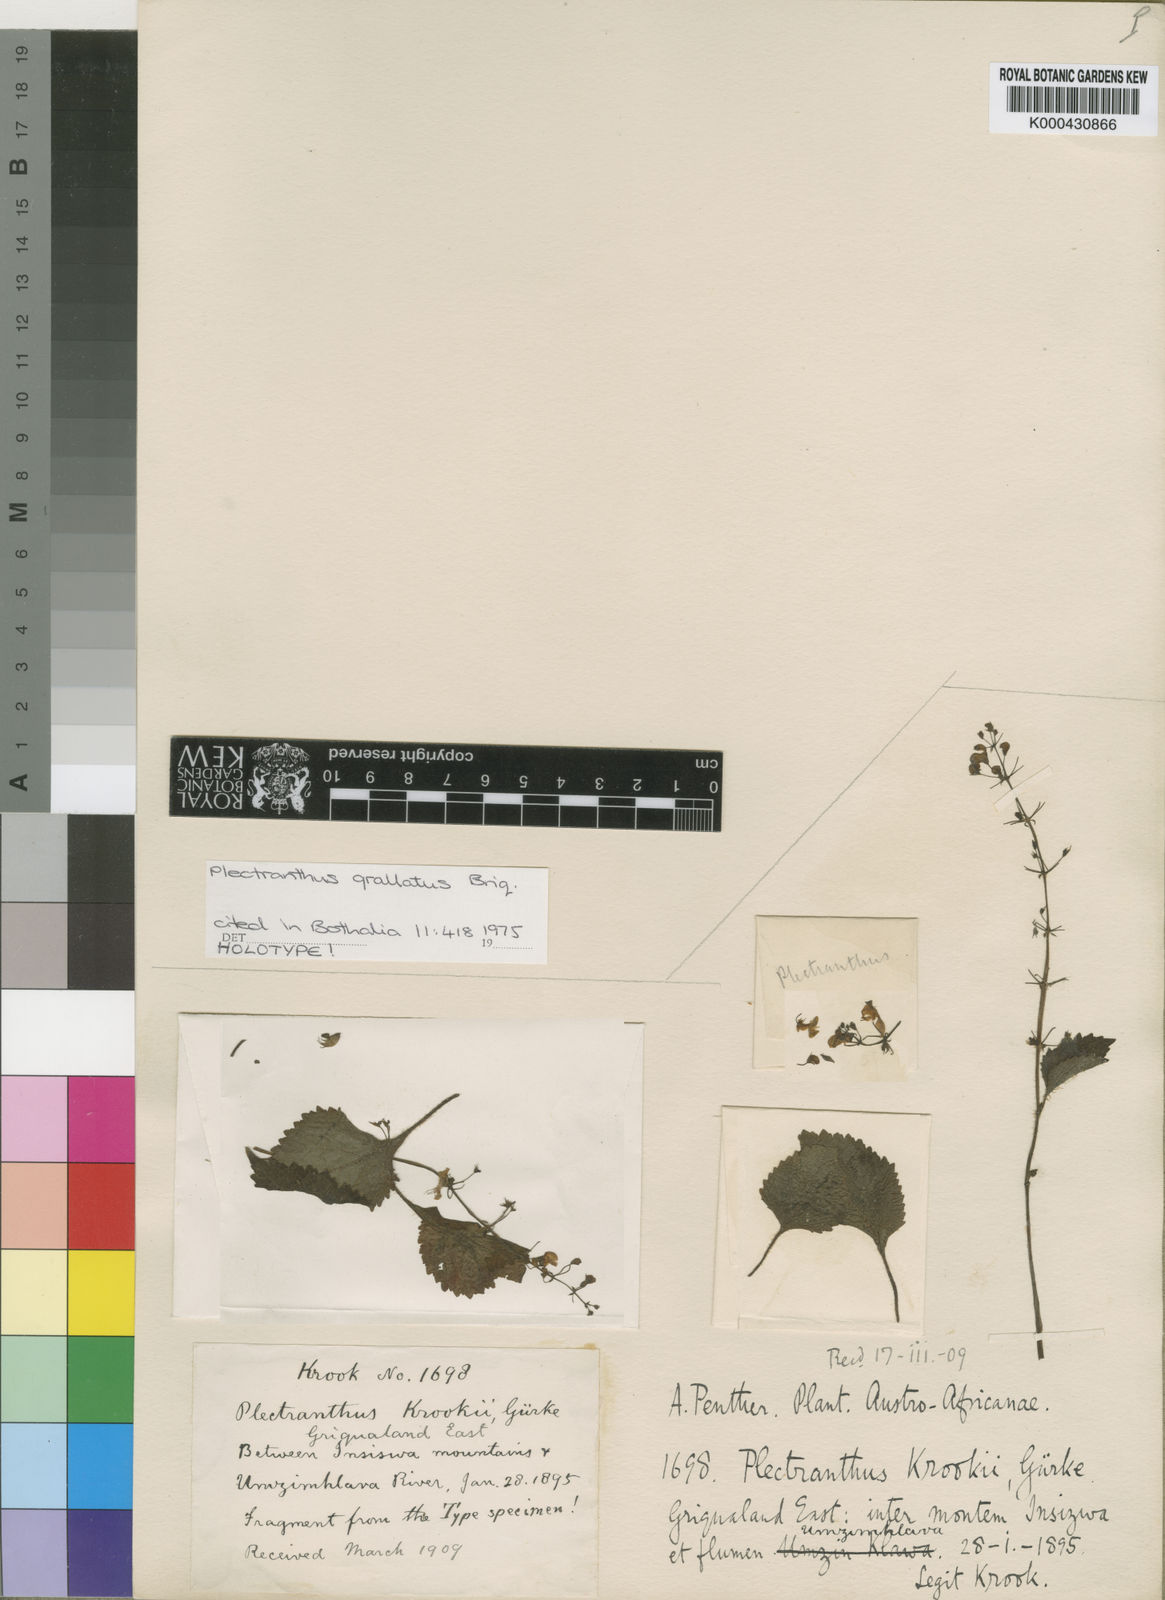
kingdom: Plantae
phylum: Tracheophyta
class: Magnoliopsida
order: Lamiales
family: Lamiaceae
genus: Plectranthus
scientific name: Plectranthus grallatus
